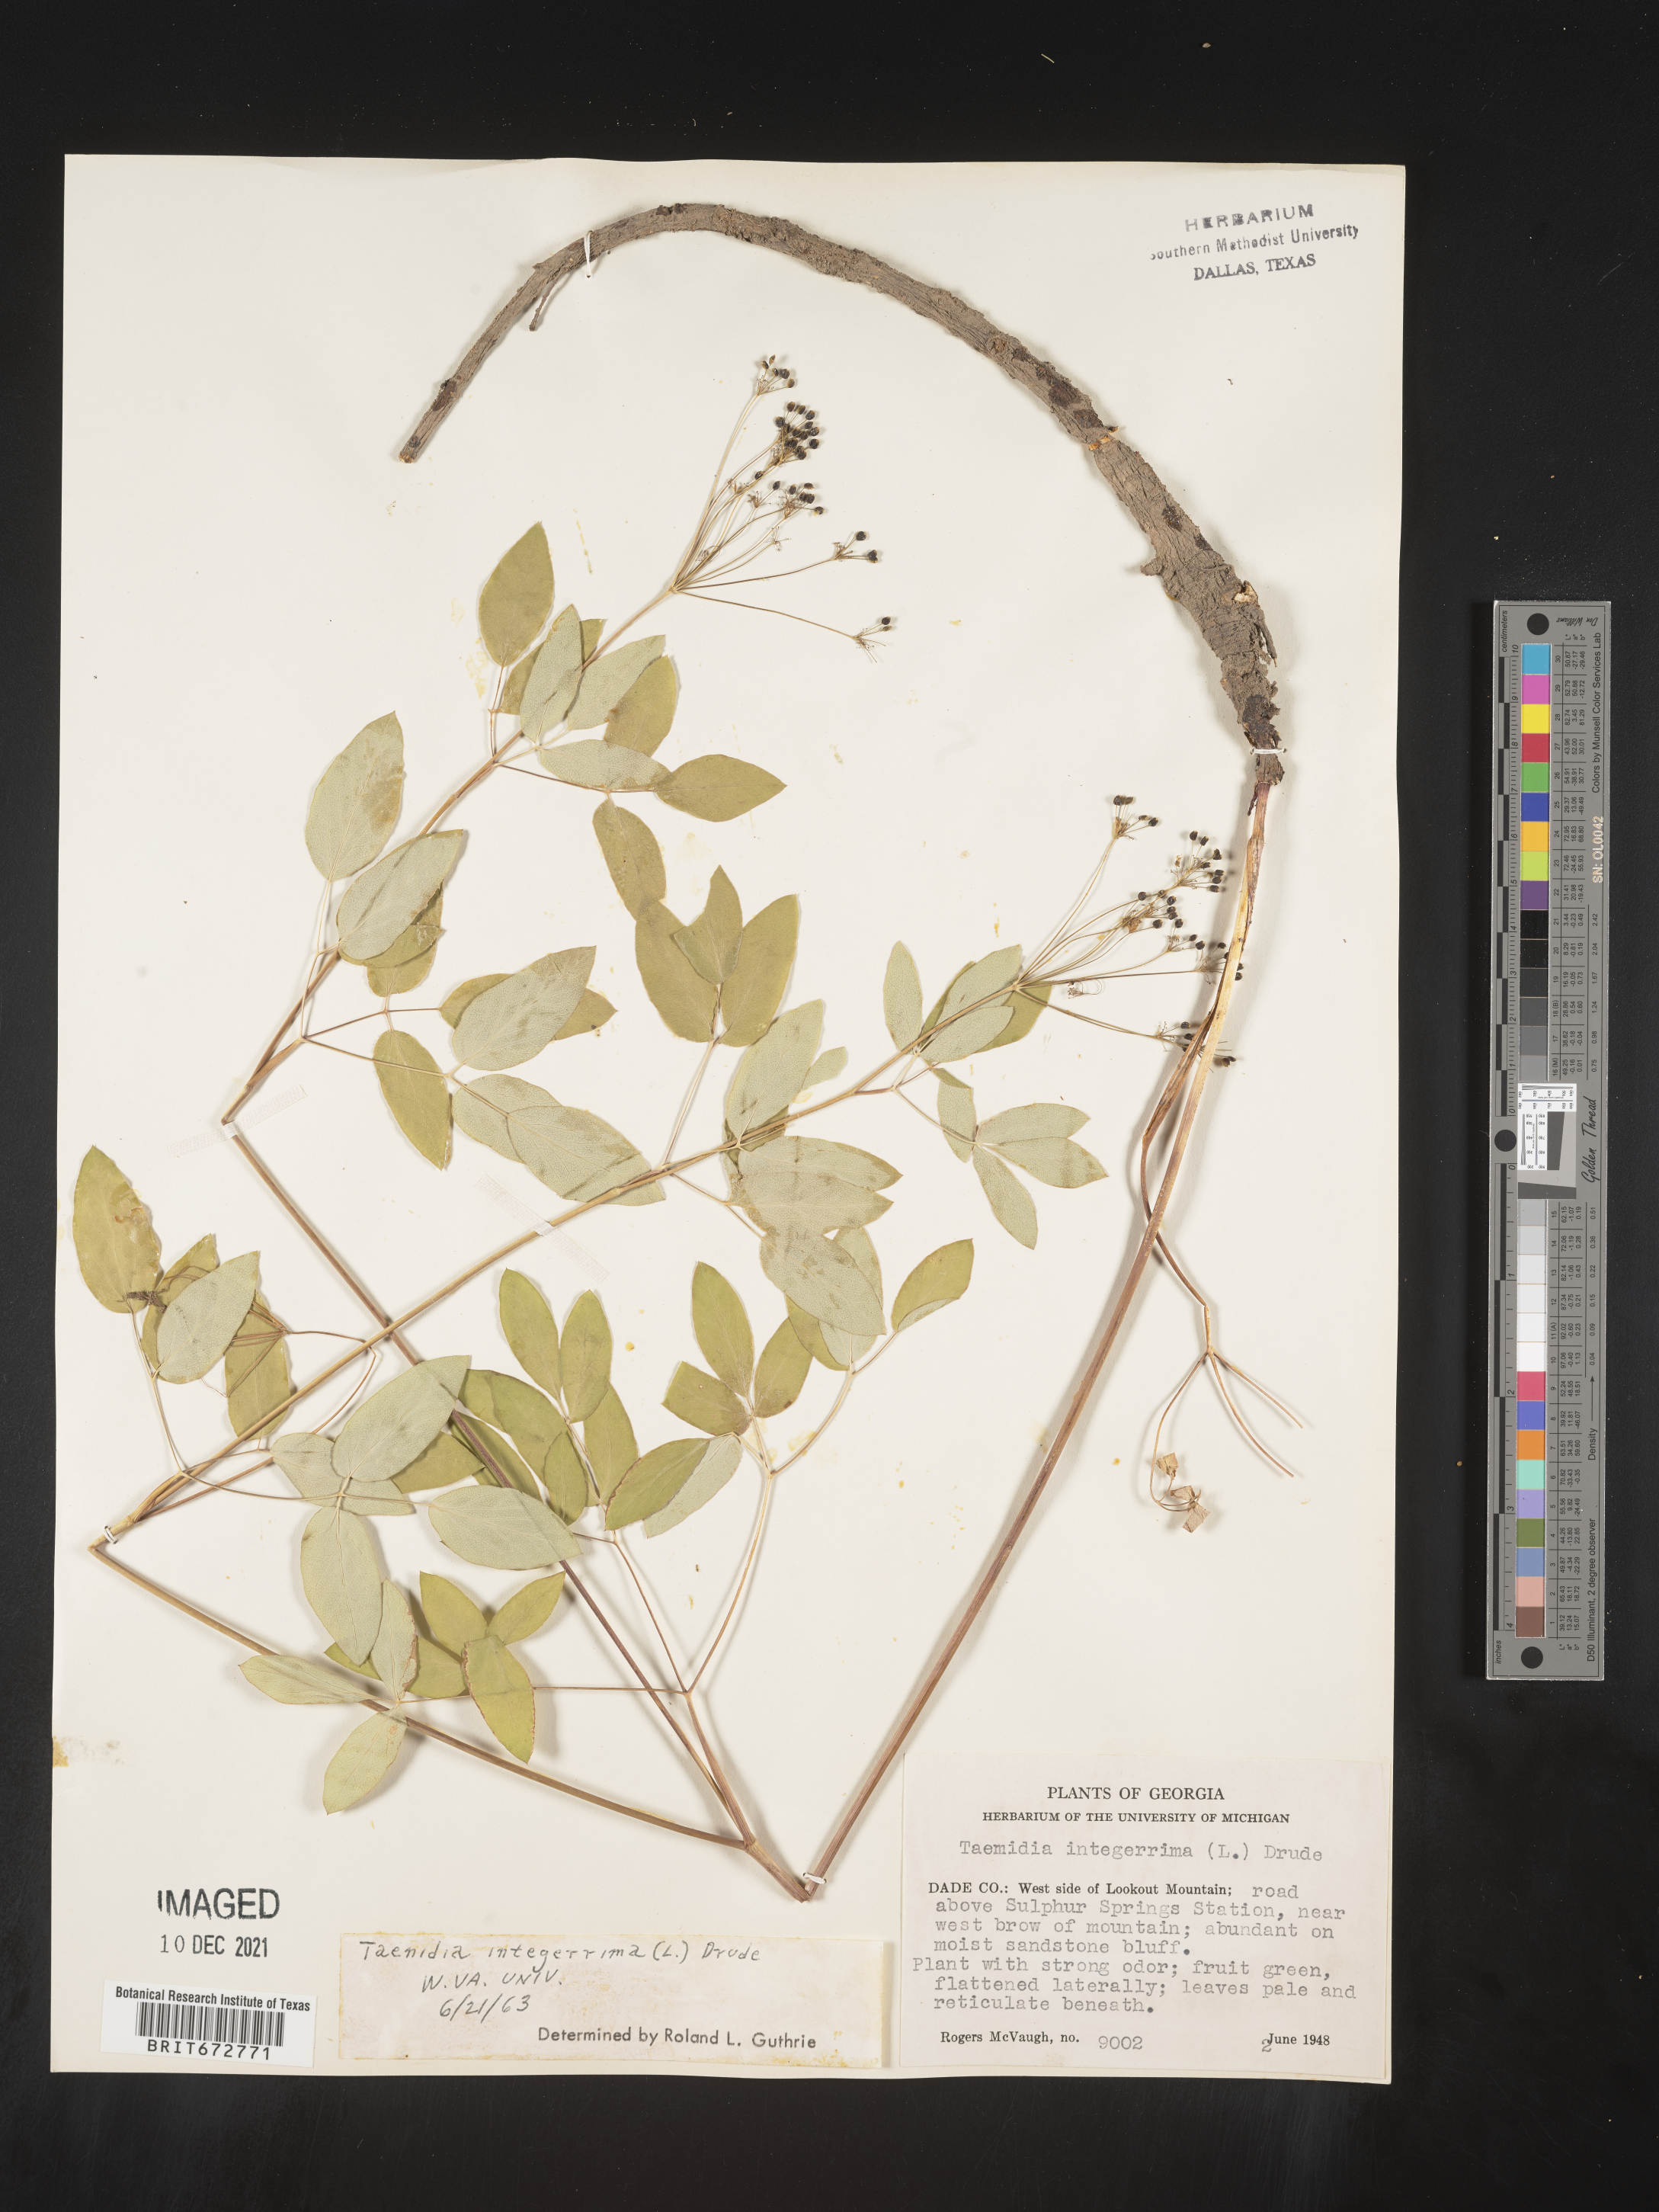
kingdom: Plantae
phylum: Tracheophyta
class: Magnoliopsida
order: Apiales
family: Apiaceae
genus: Taenidia
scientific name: Taenidia integerrima
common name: Golden alexander
